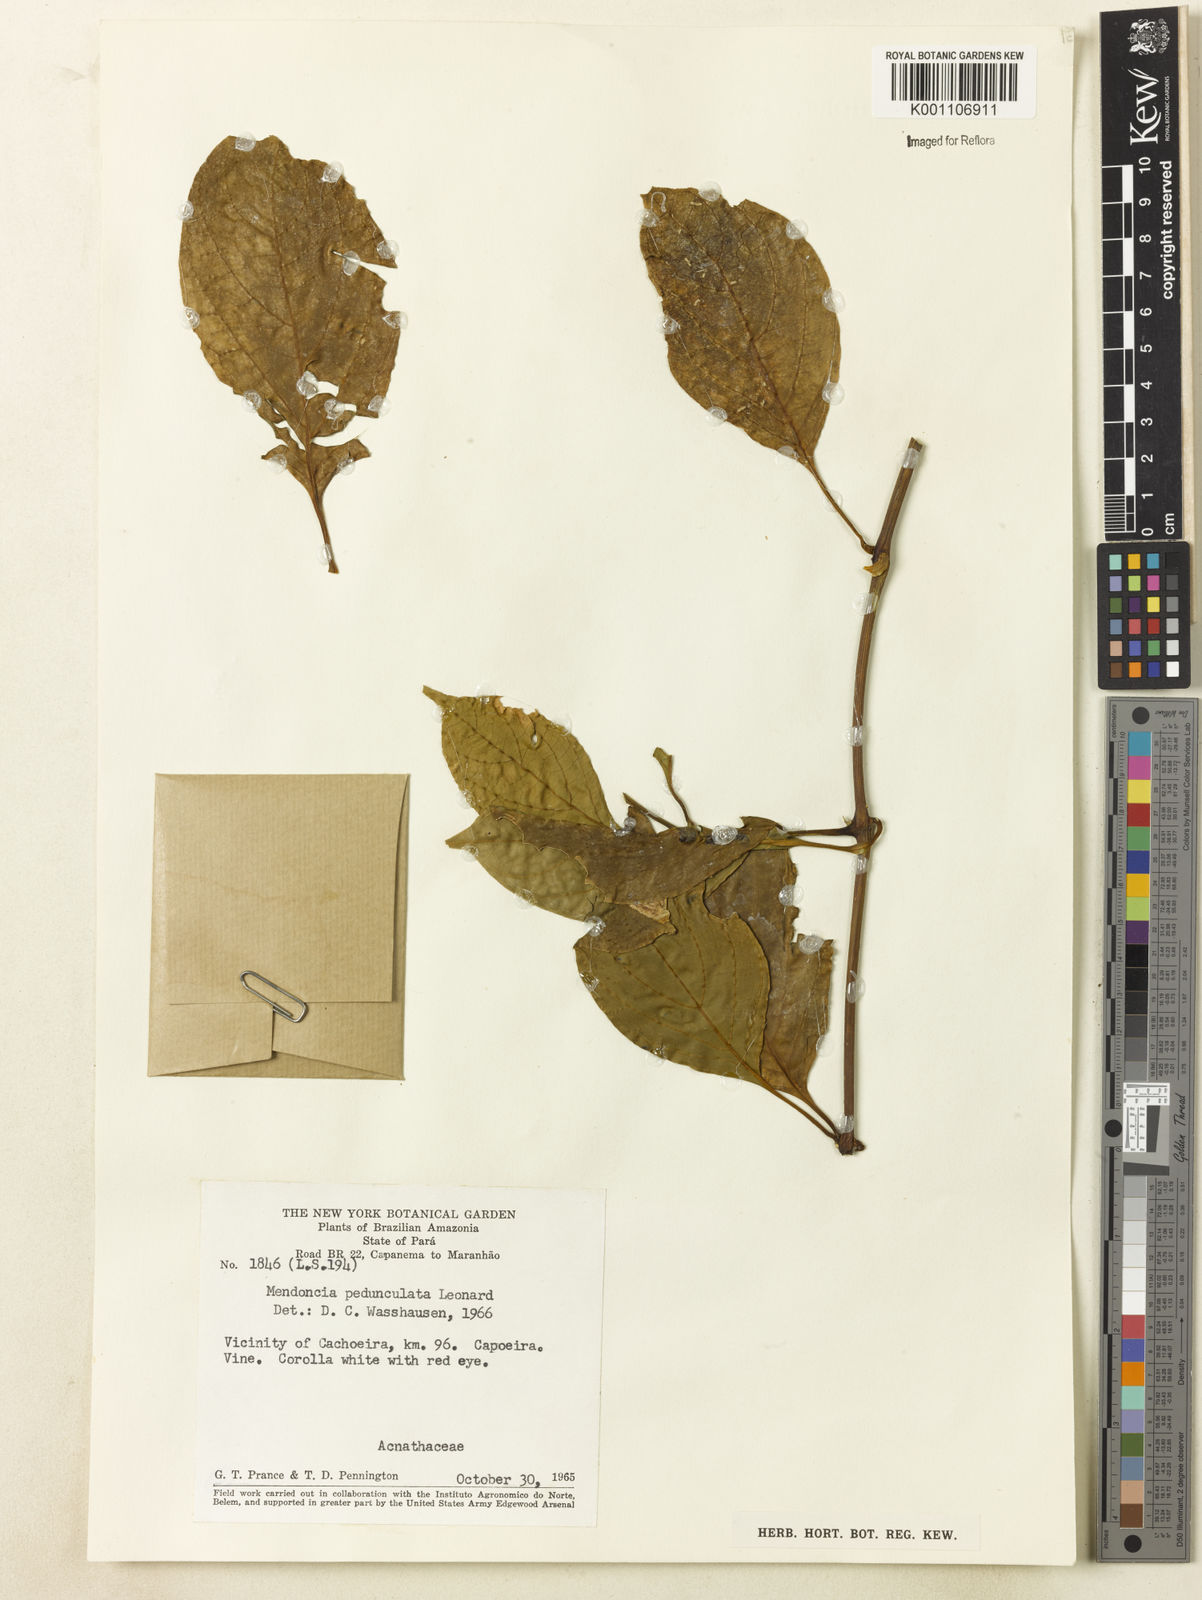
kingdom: Plantae
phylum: Tracheophyta
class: Magnoliopsida
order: Lamiales
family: Acanthaceae
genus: Mendoncia
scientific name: Mendoncia pedunculata
